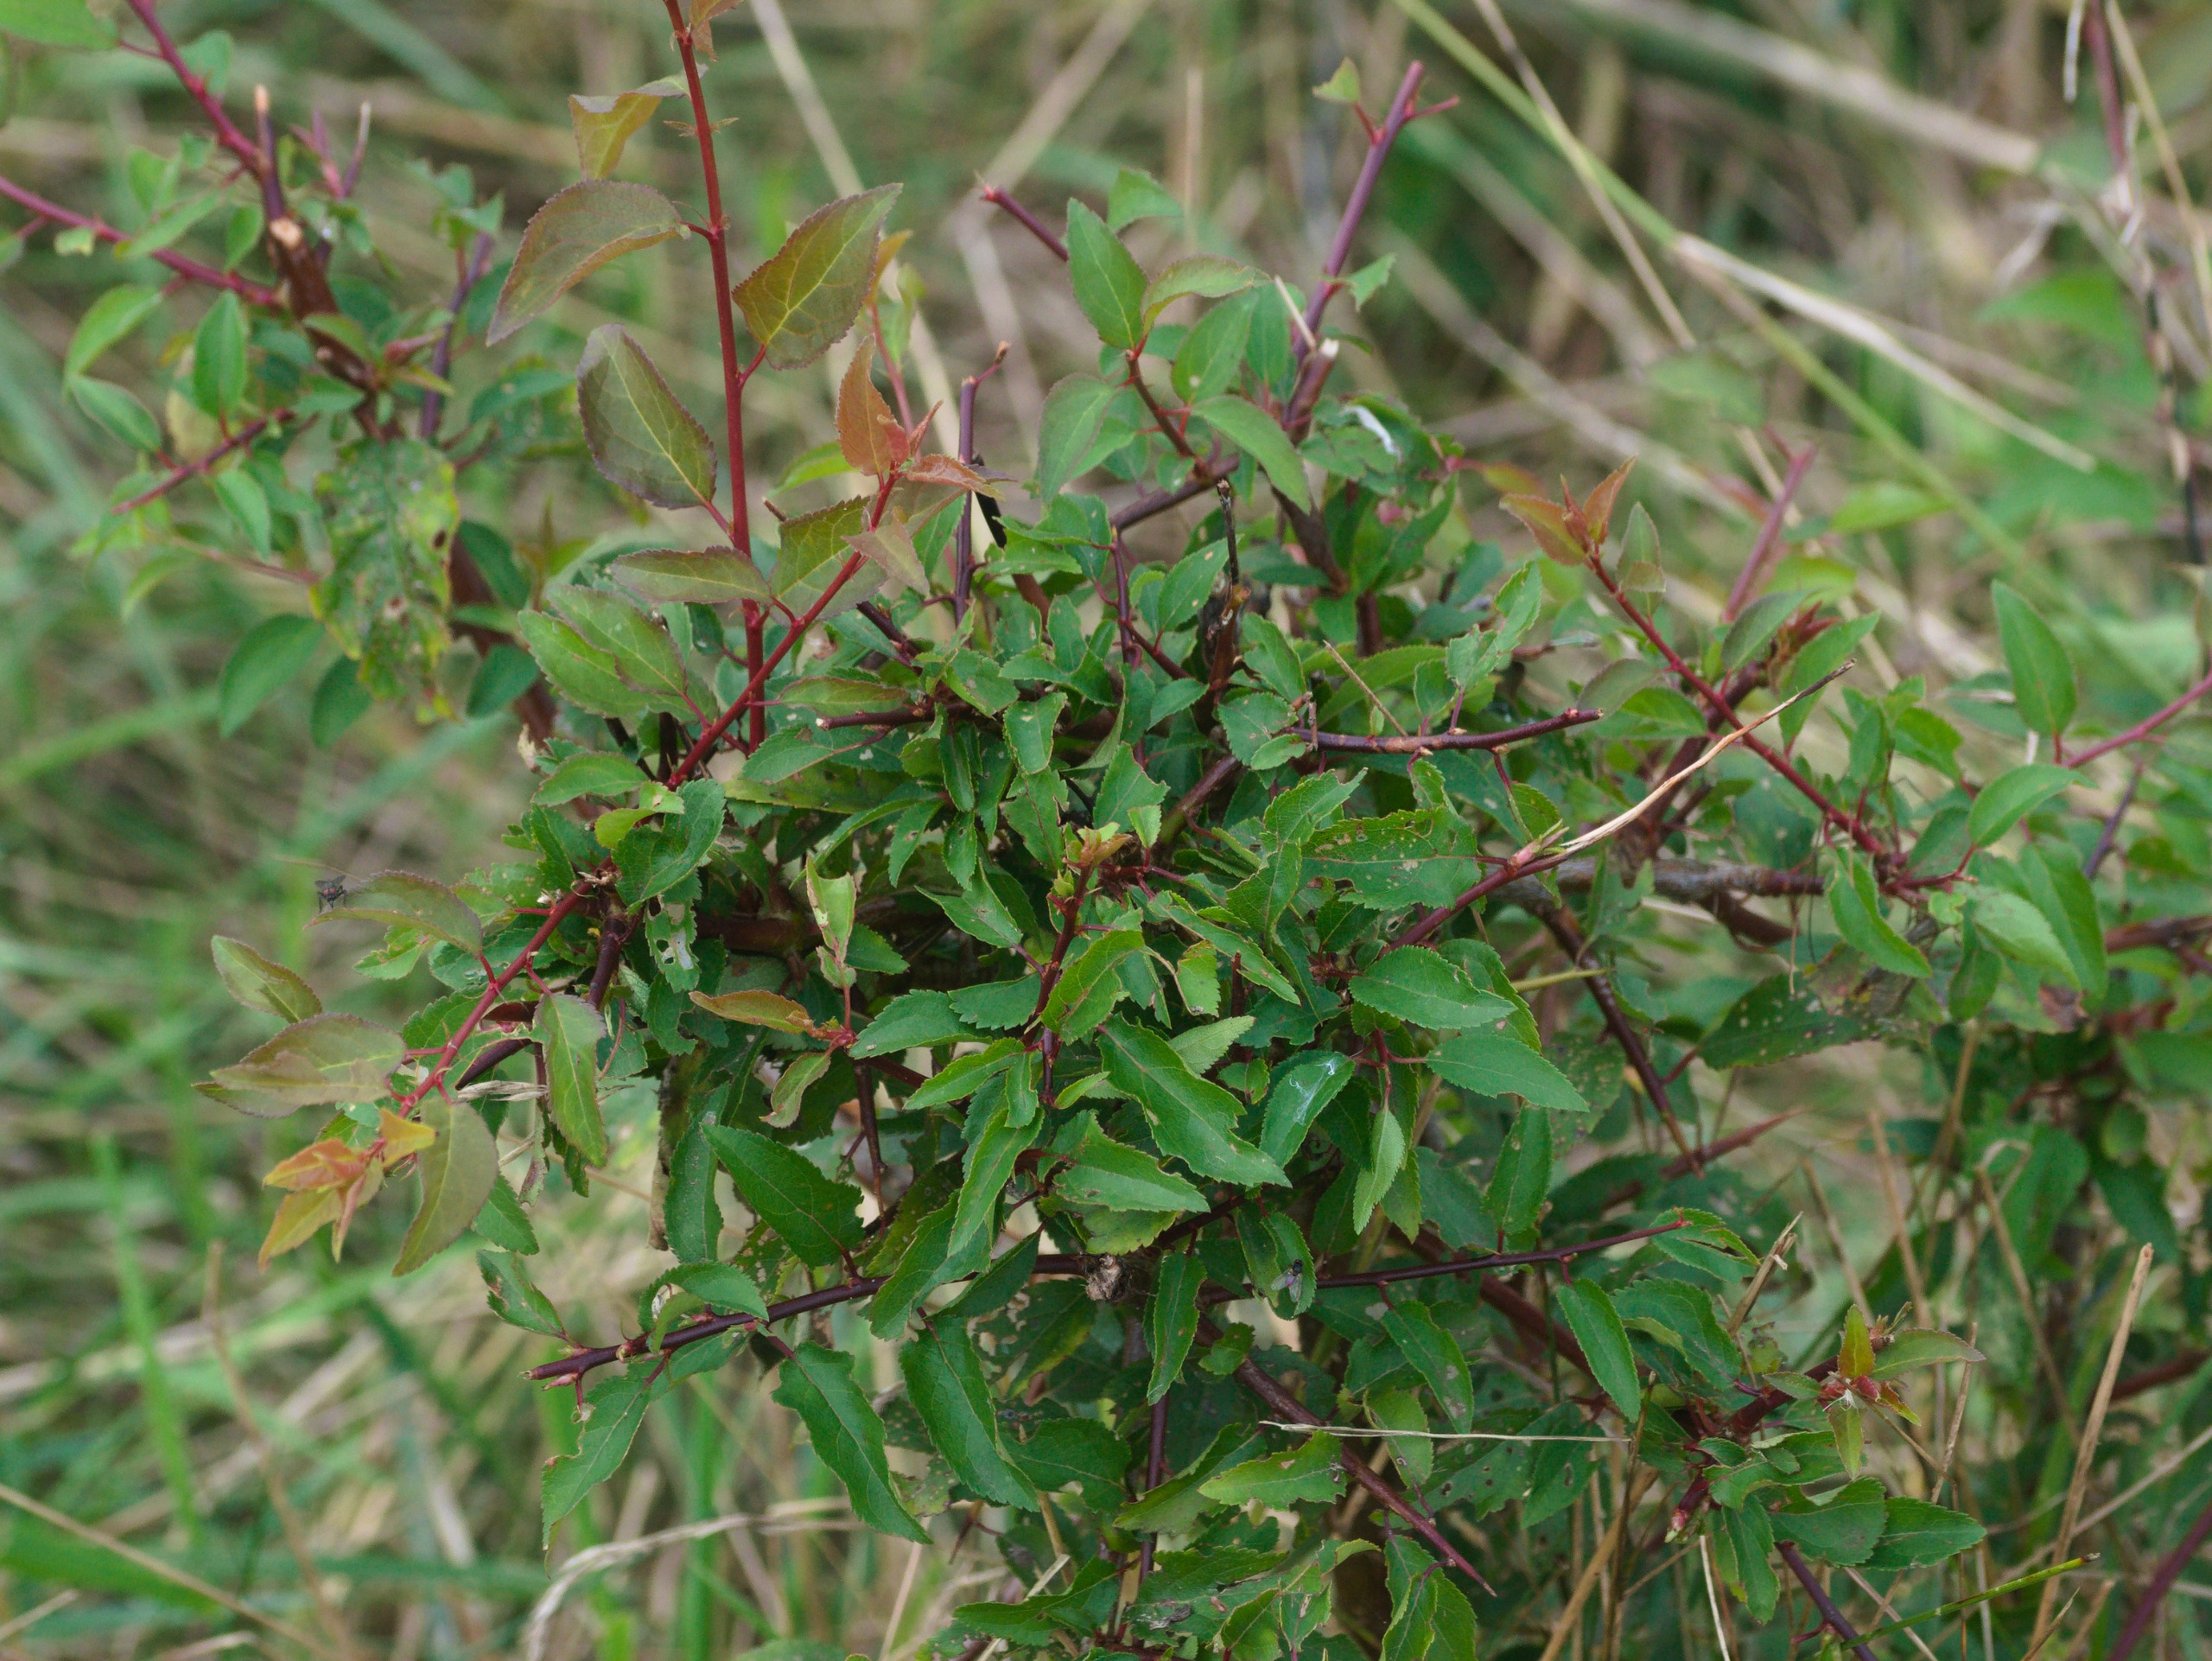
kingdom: Plantae
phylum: Tracheophyta
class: Magnoliopsida
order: Rosales
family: Rosaceae
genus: Prunus
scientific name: Prunus cerasifera
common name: Mirabel
